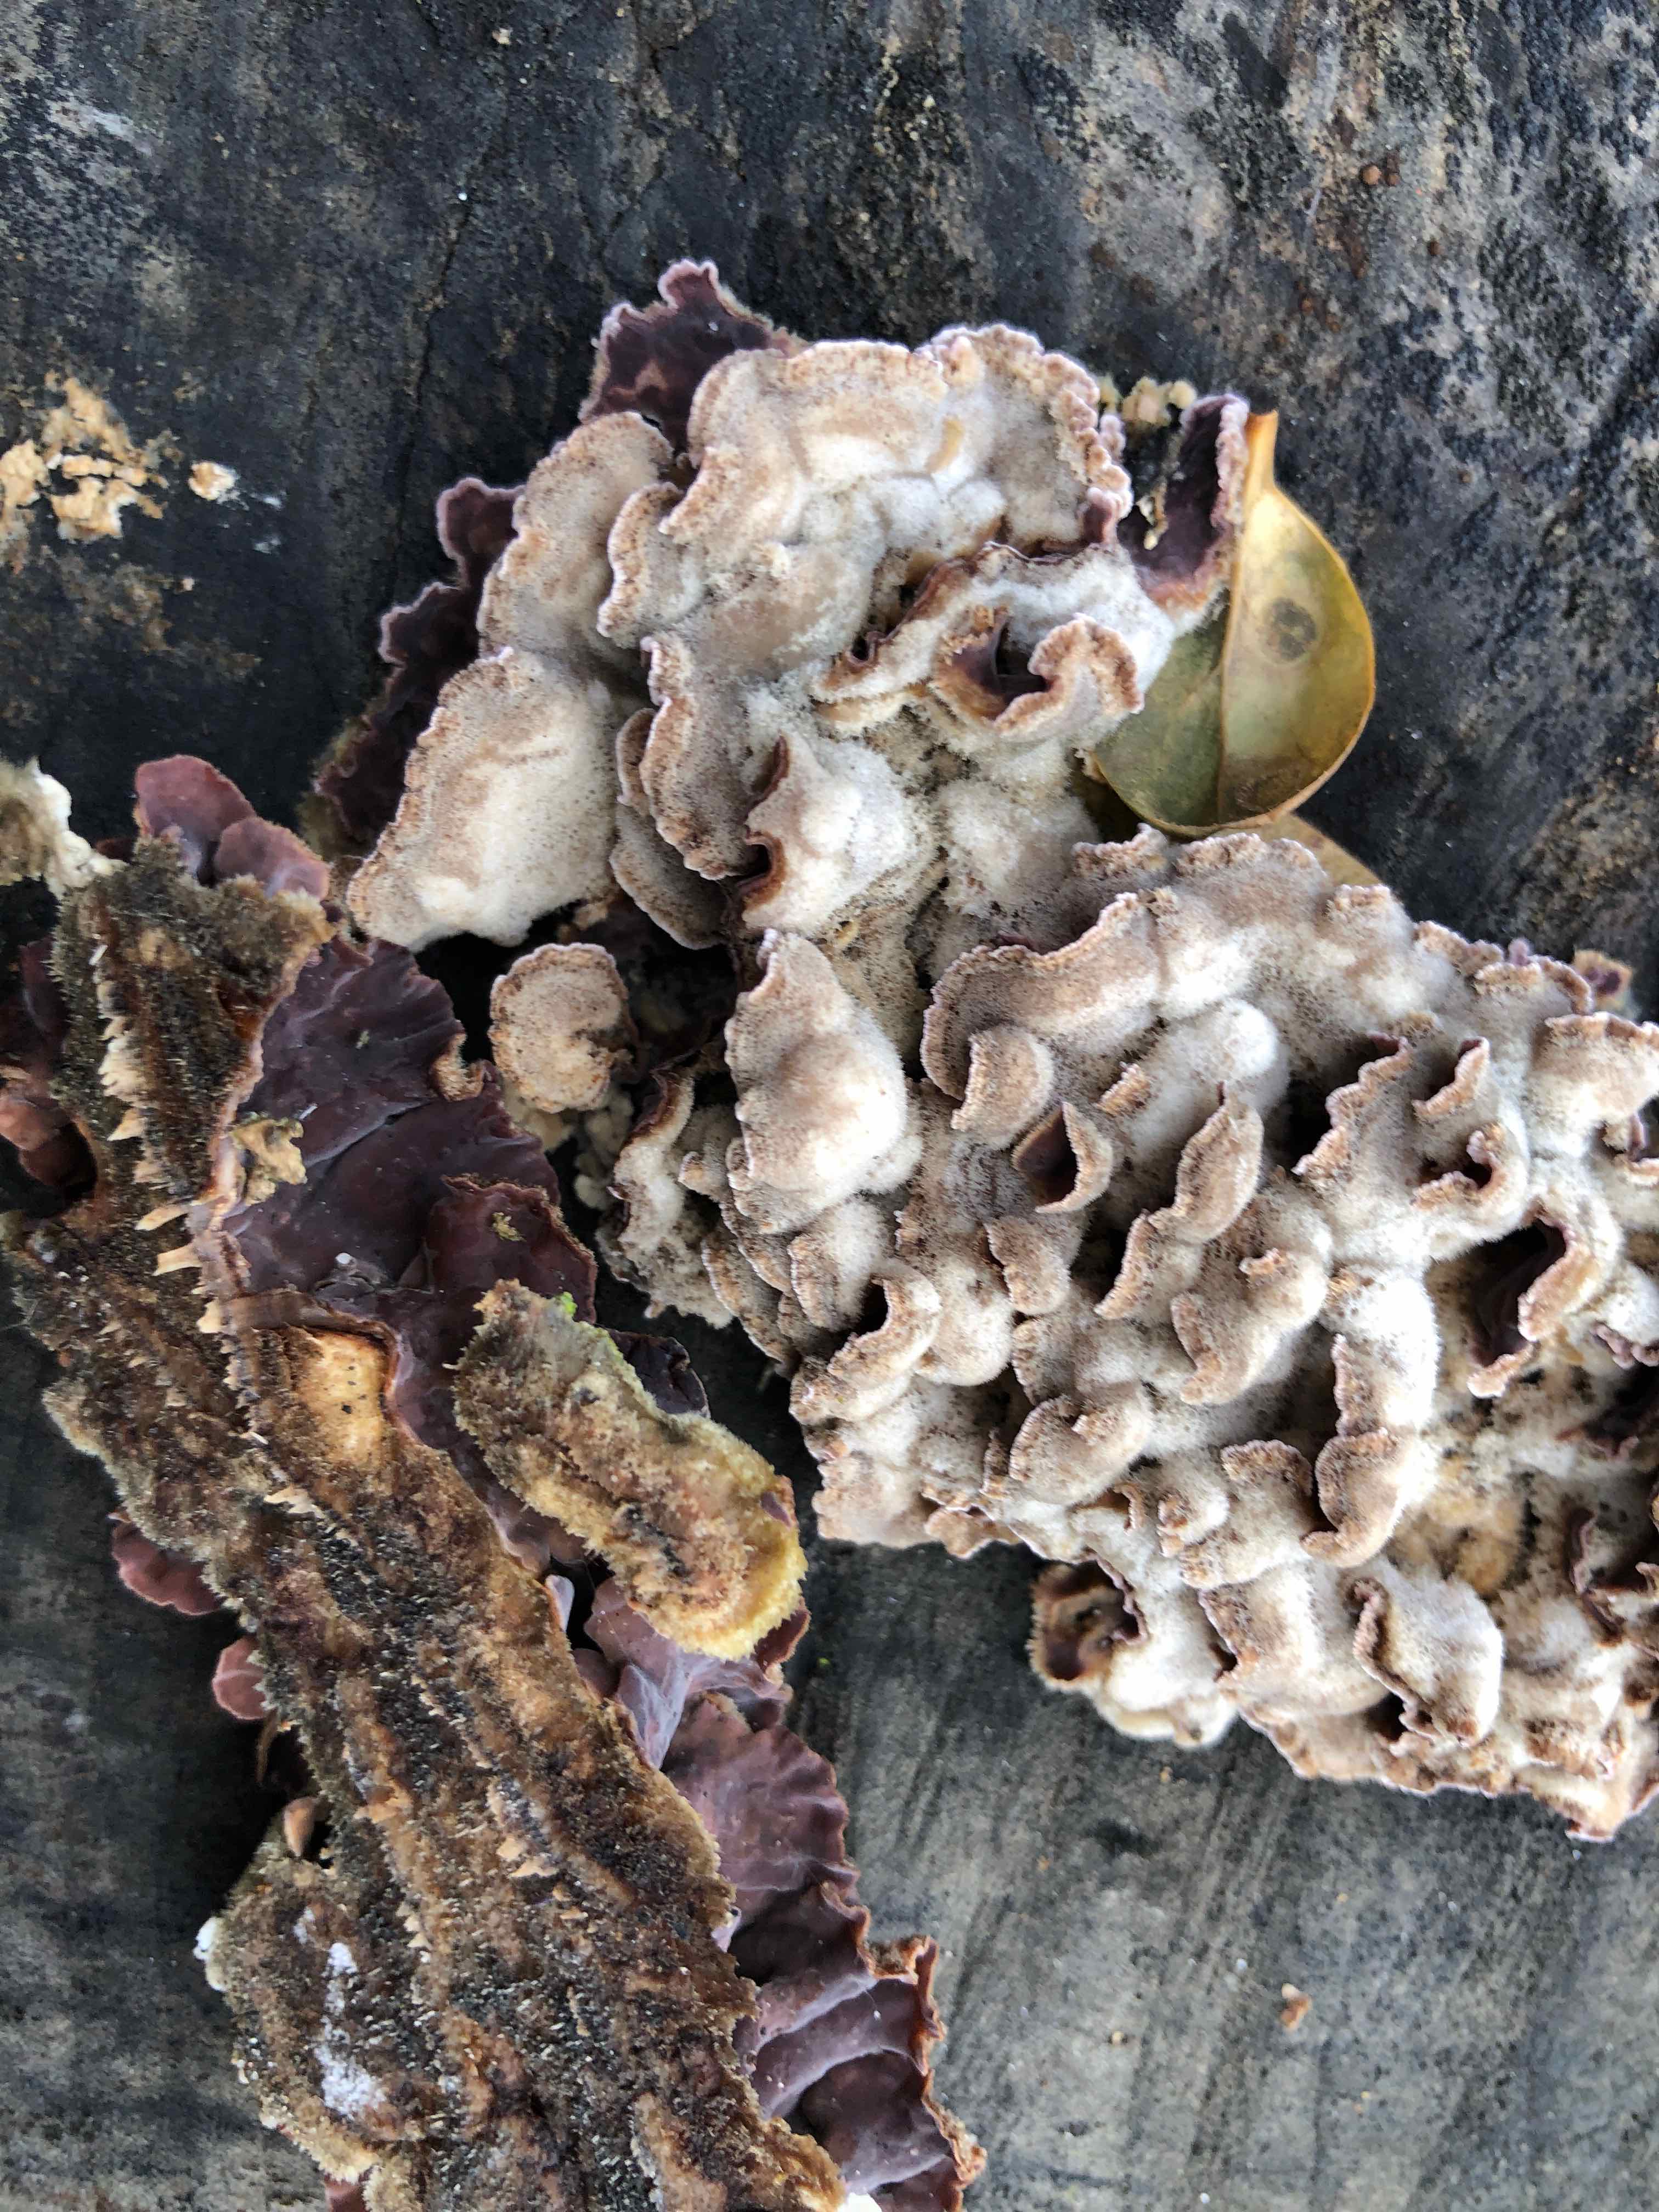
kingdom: Fungi
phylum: Basidiomycota
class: Agaricomycetes
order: Agaricales
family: Cyphellaceae
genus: Chondrostereum
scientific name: Chondrostereum purpureum
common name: purpurlædersvamp
